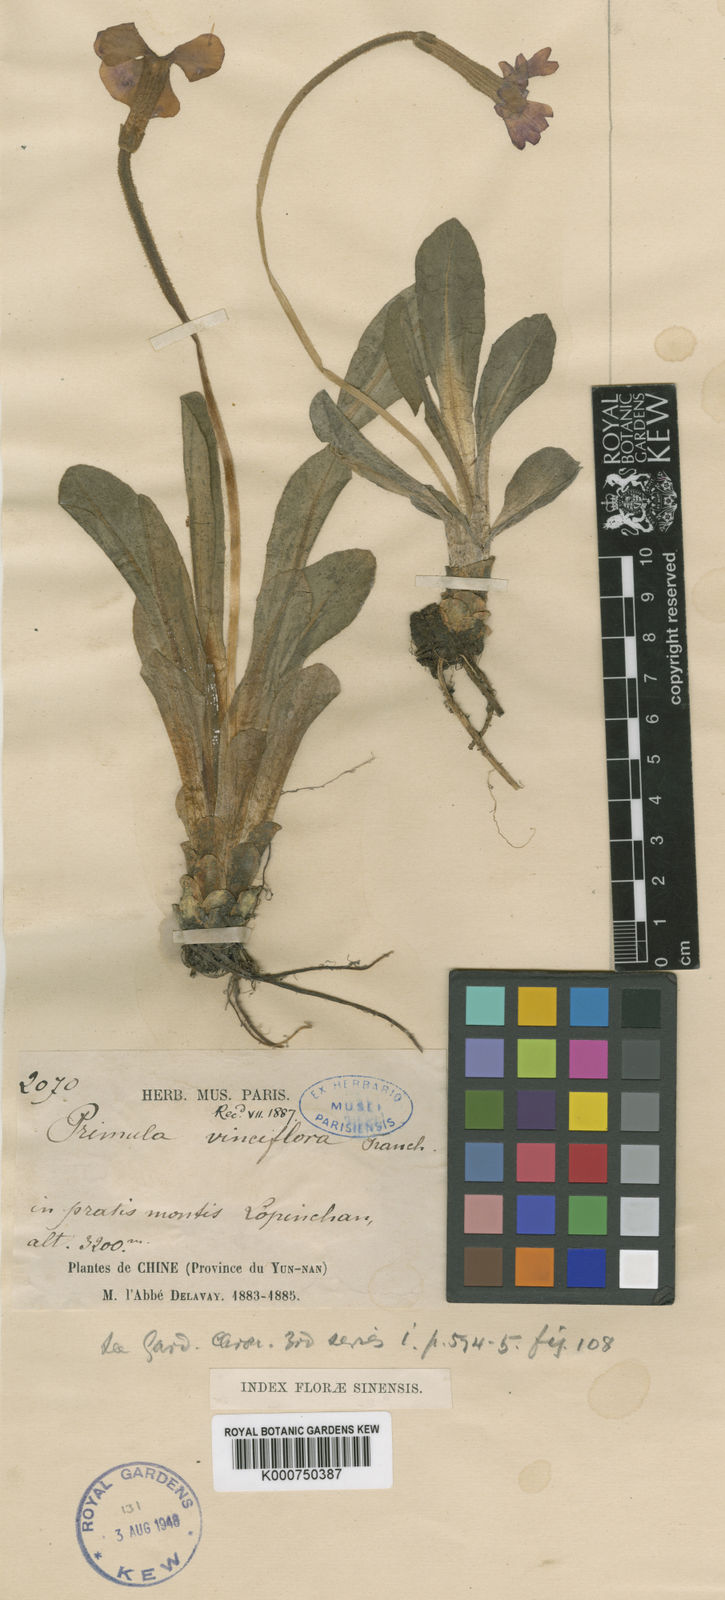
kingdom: Plantae
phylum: Tracheophyta
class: Magnoliopsida
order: Ericales
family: Primulaceae
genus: Omphalogramma
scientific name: Omphalogramma vinciflorum
